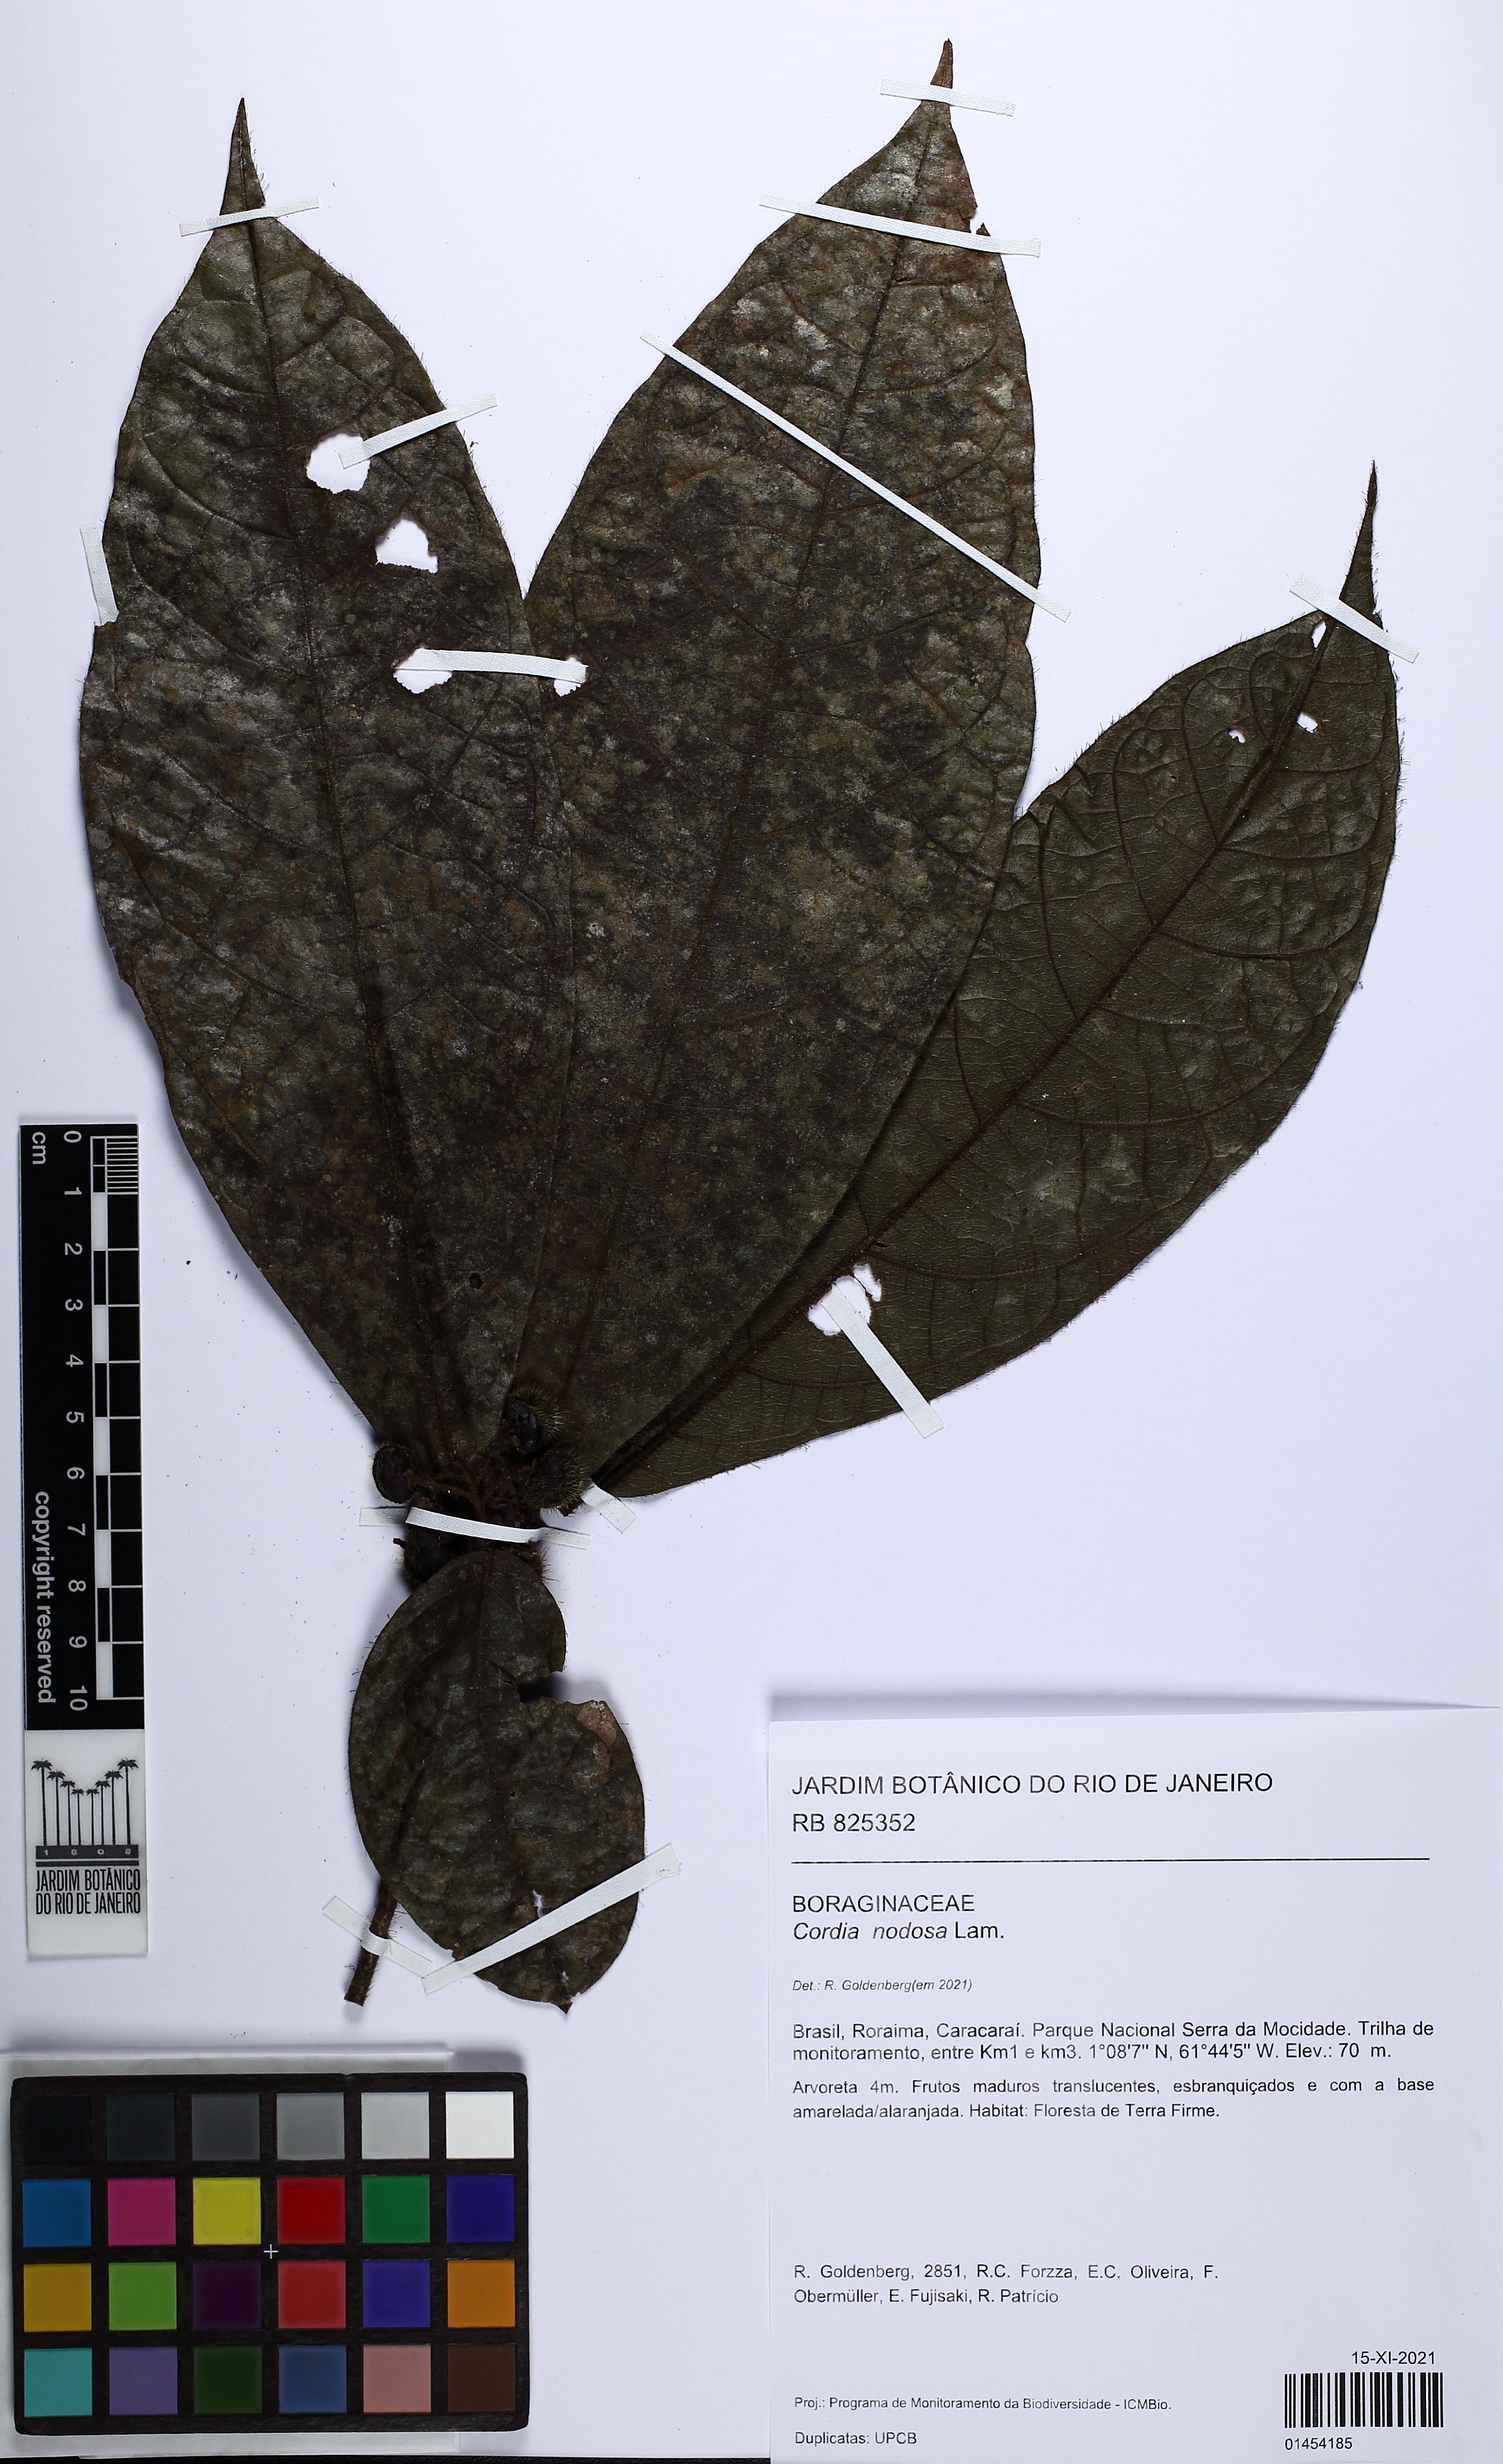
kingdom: Plantae
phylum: Tracheophyta
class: Magnoliopsida
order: Boraginales
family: Cordiaceae
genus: Cordia
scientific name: Cordia nodosa
